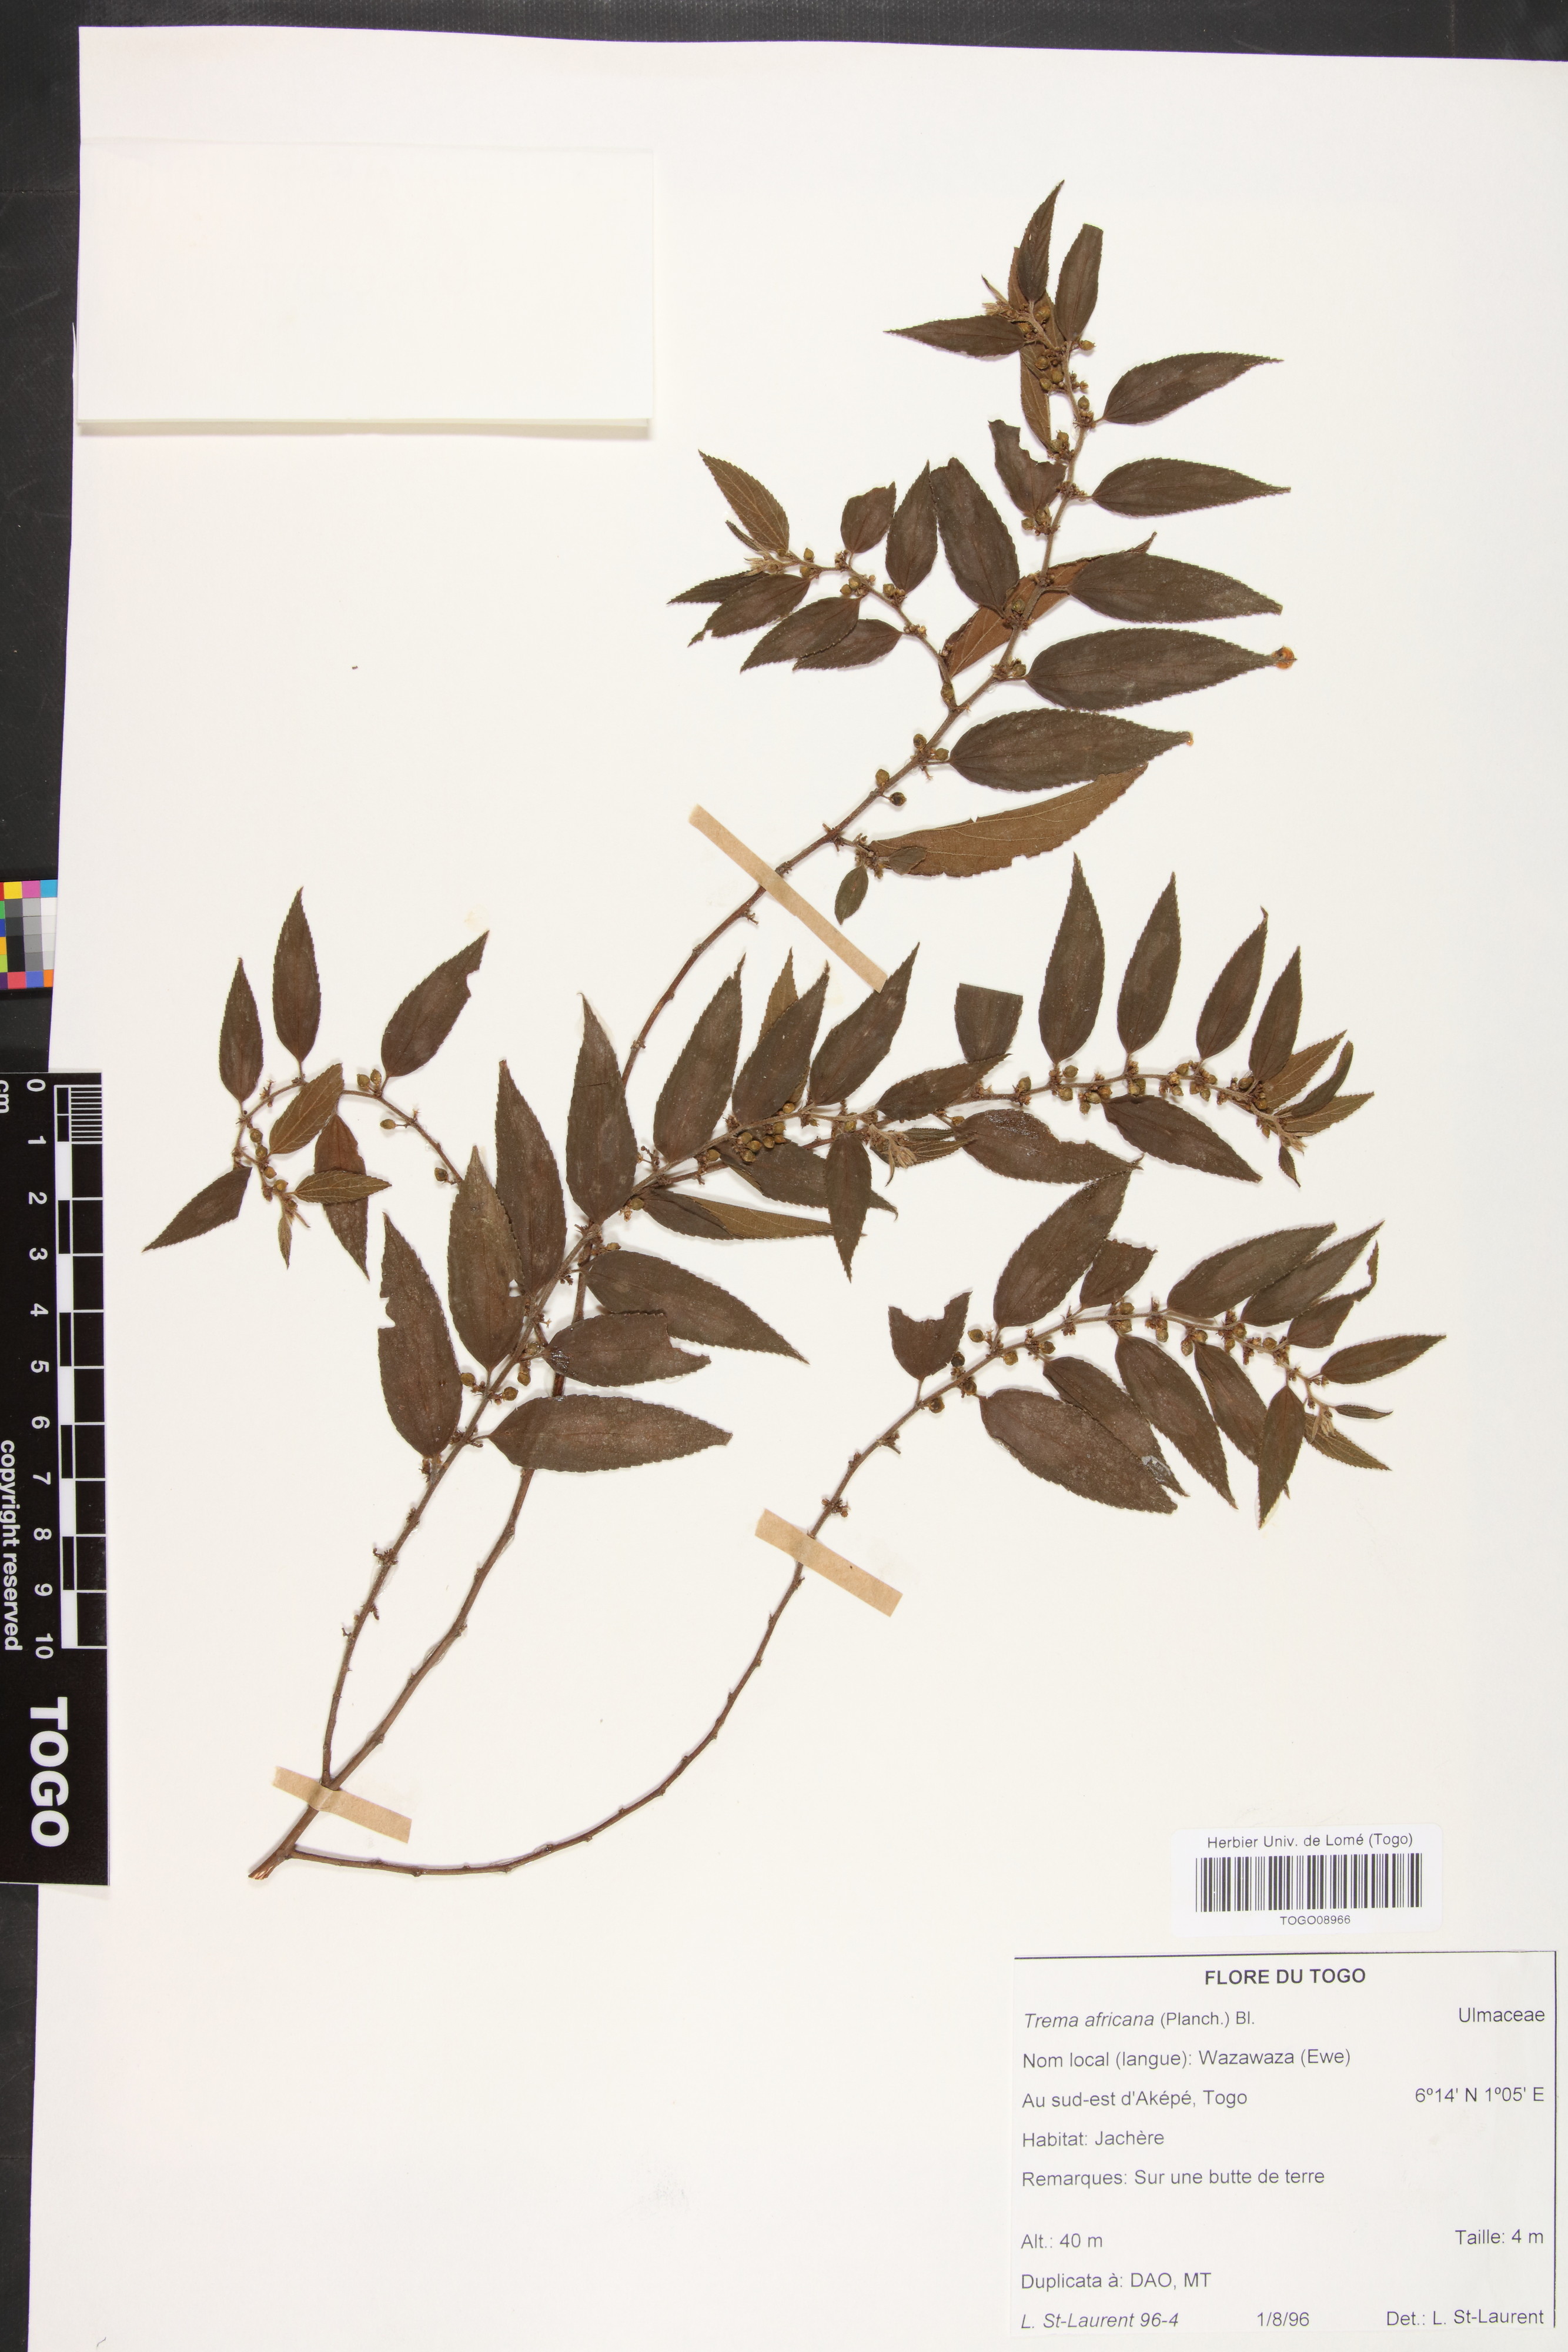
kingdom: Plantae
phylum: Tracheophyta
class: Magnoliopsida
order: Rosales
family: Cannabaceae
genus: Trema
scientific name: Trema orientale
